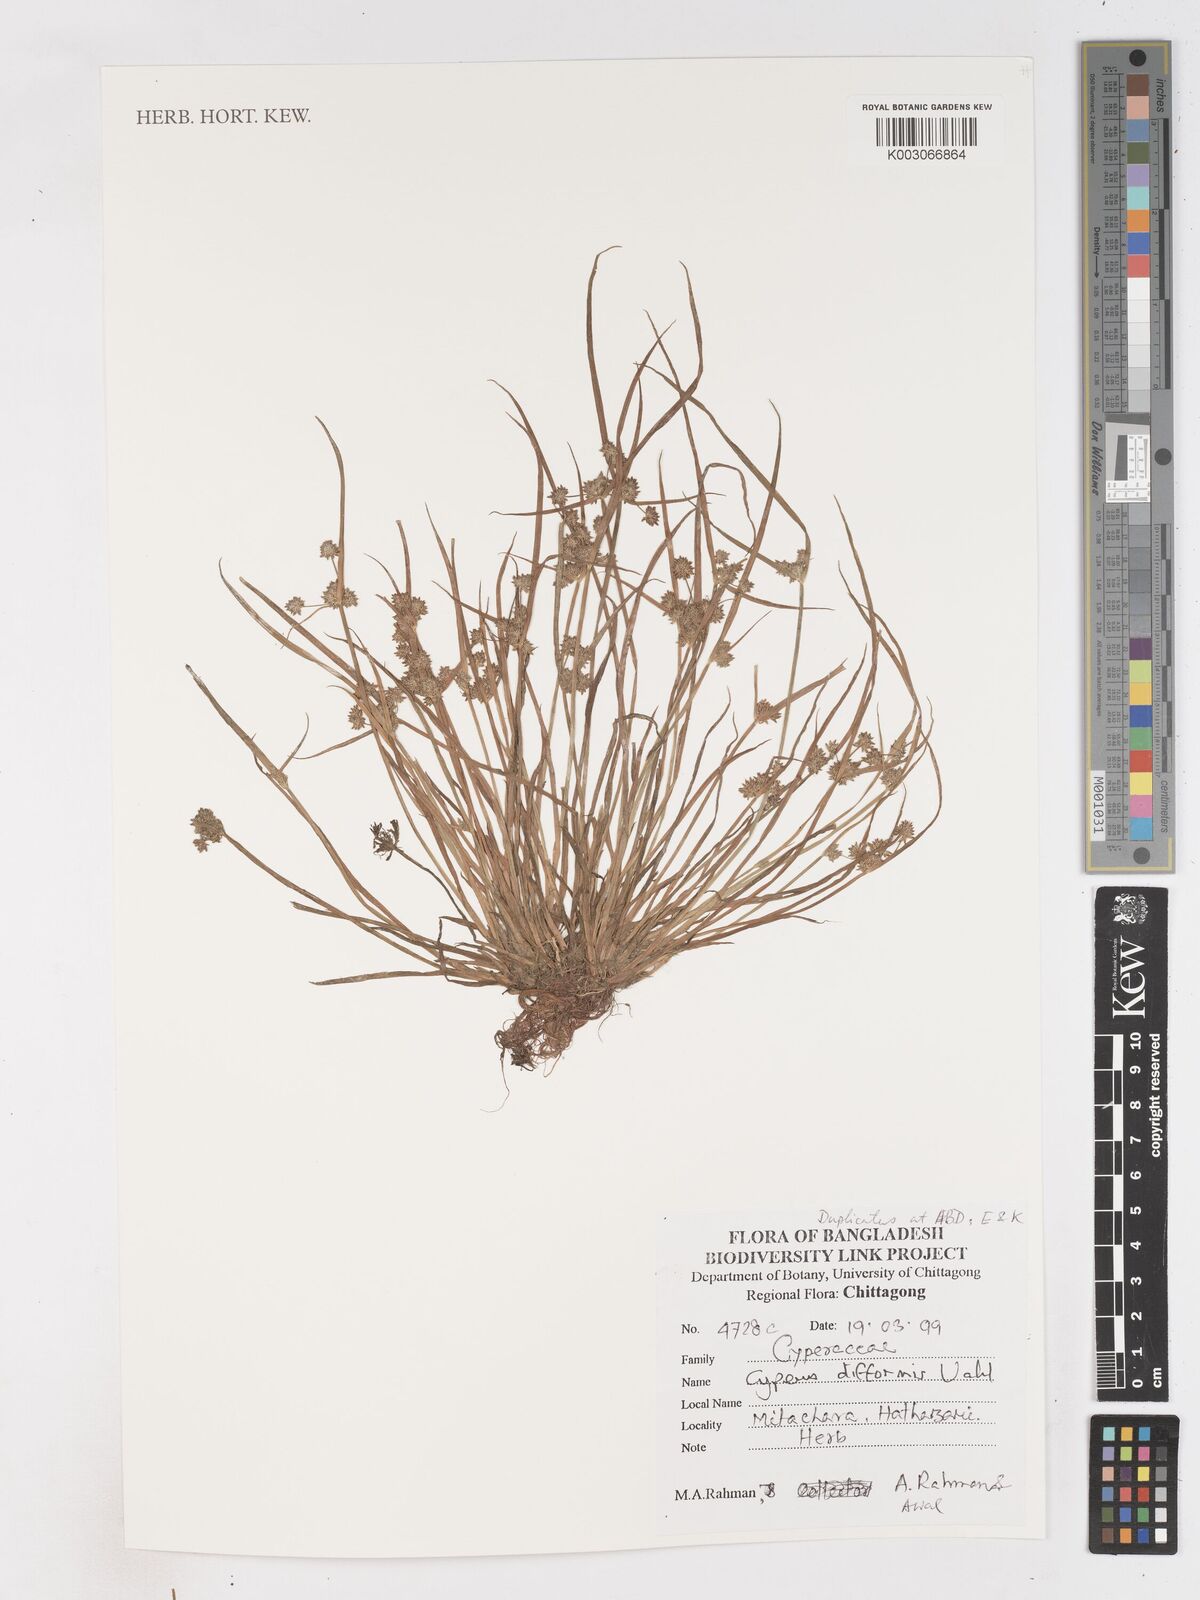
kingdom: Plantae
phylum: Tracheophyta
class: Liliopsida
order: Poales
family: Cyperaceae
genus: Cyperus
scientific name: Cyperus difformis
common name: Variable flatsedge
